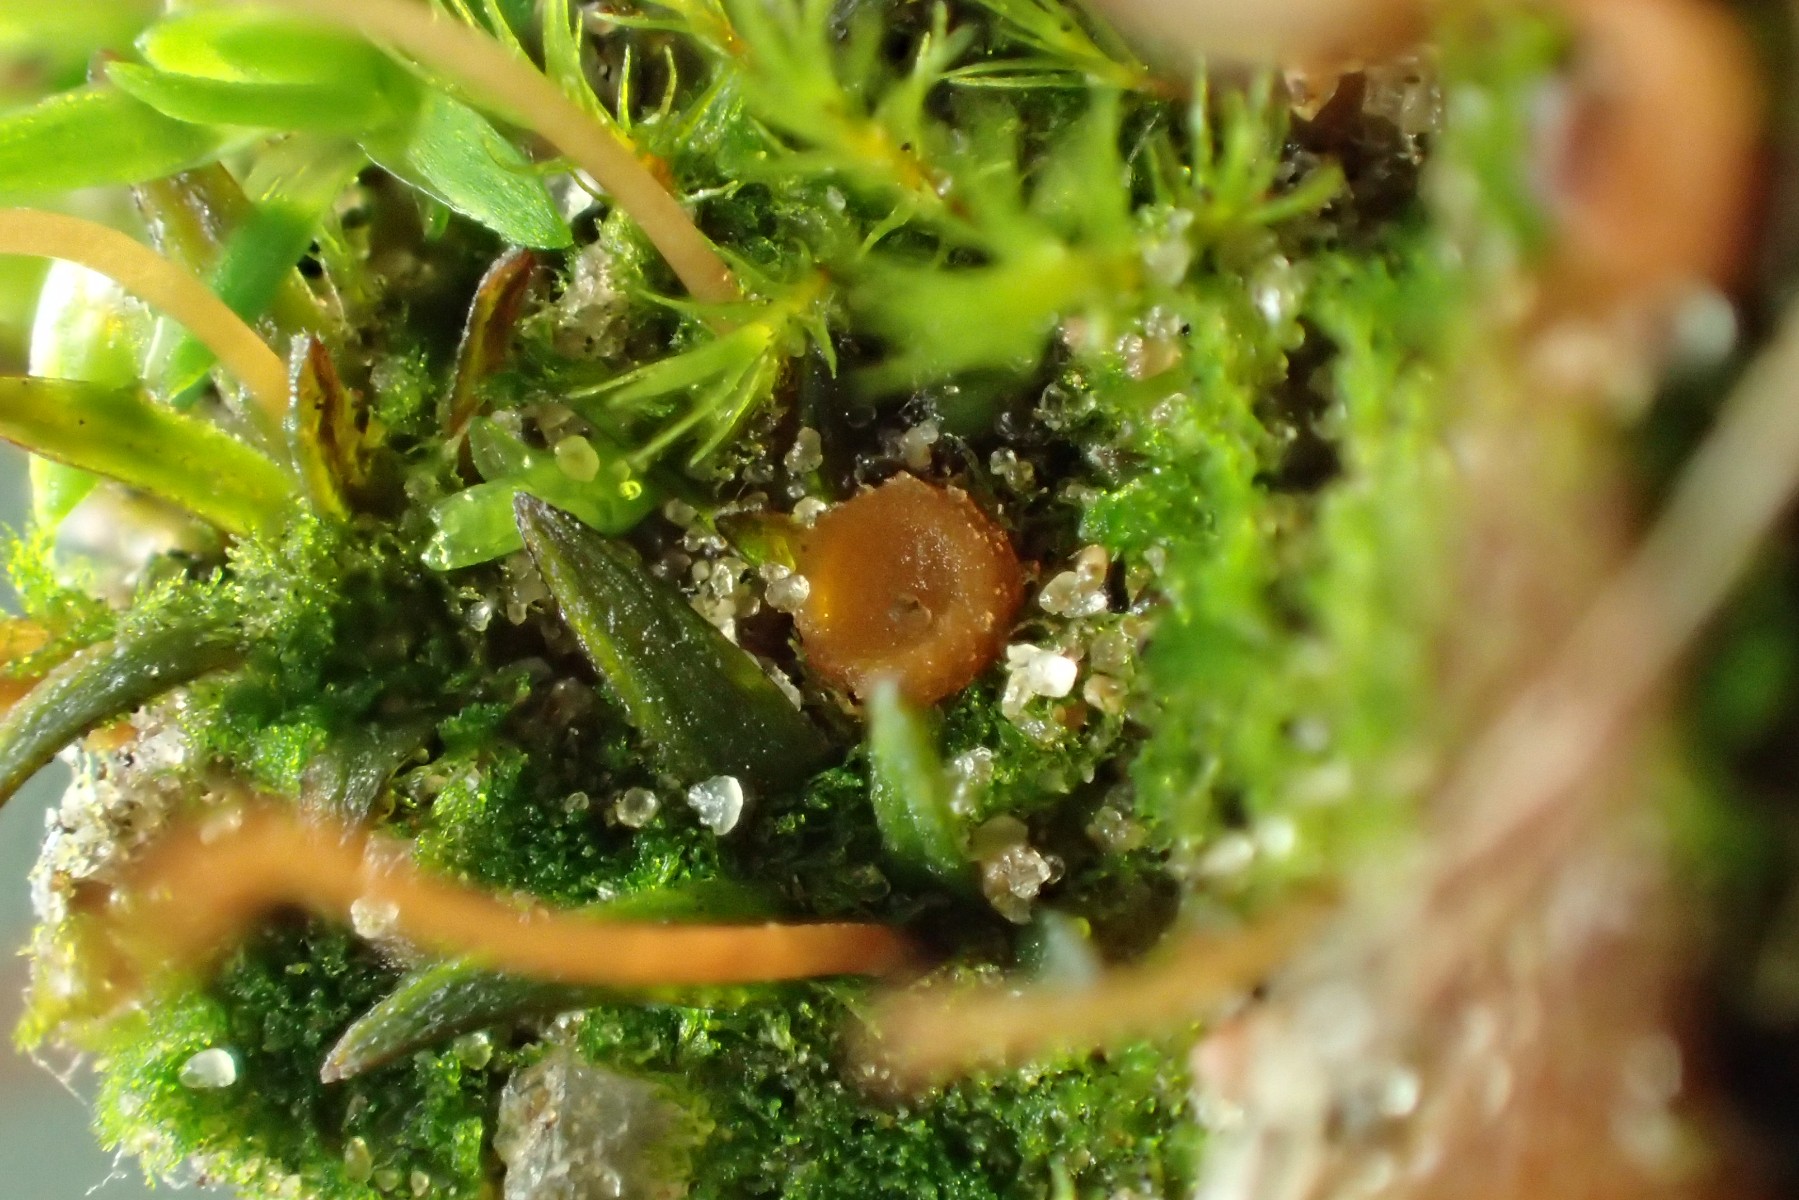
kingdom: Fungi
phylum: Ascomycota
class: Pezizomycetes
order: Pezizales
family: Pyronemataceae
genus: Octospora
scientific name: Octospora humosa
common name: Hotlips
